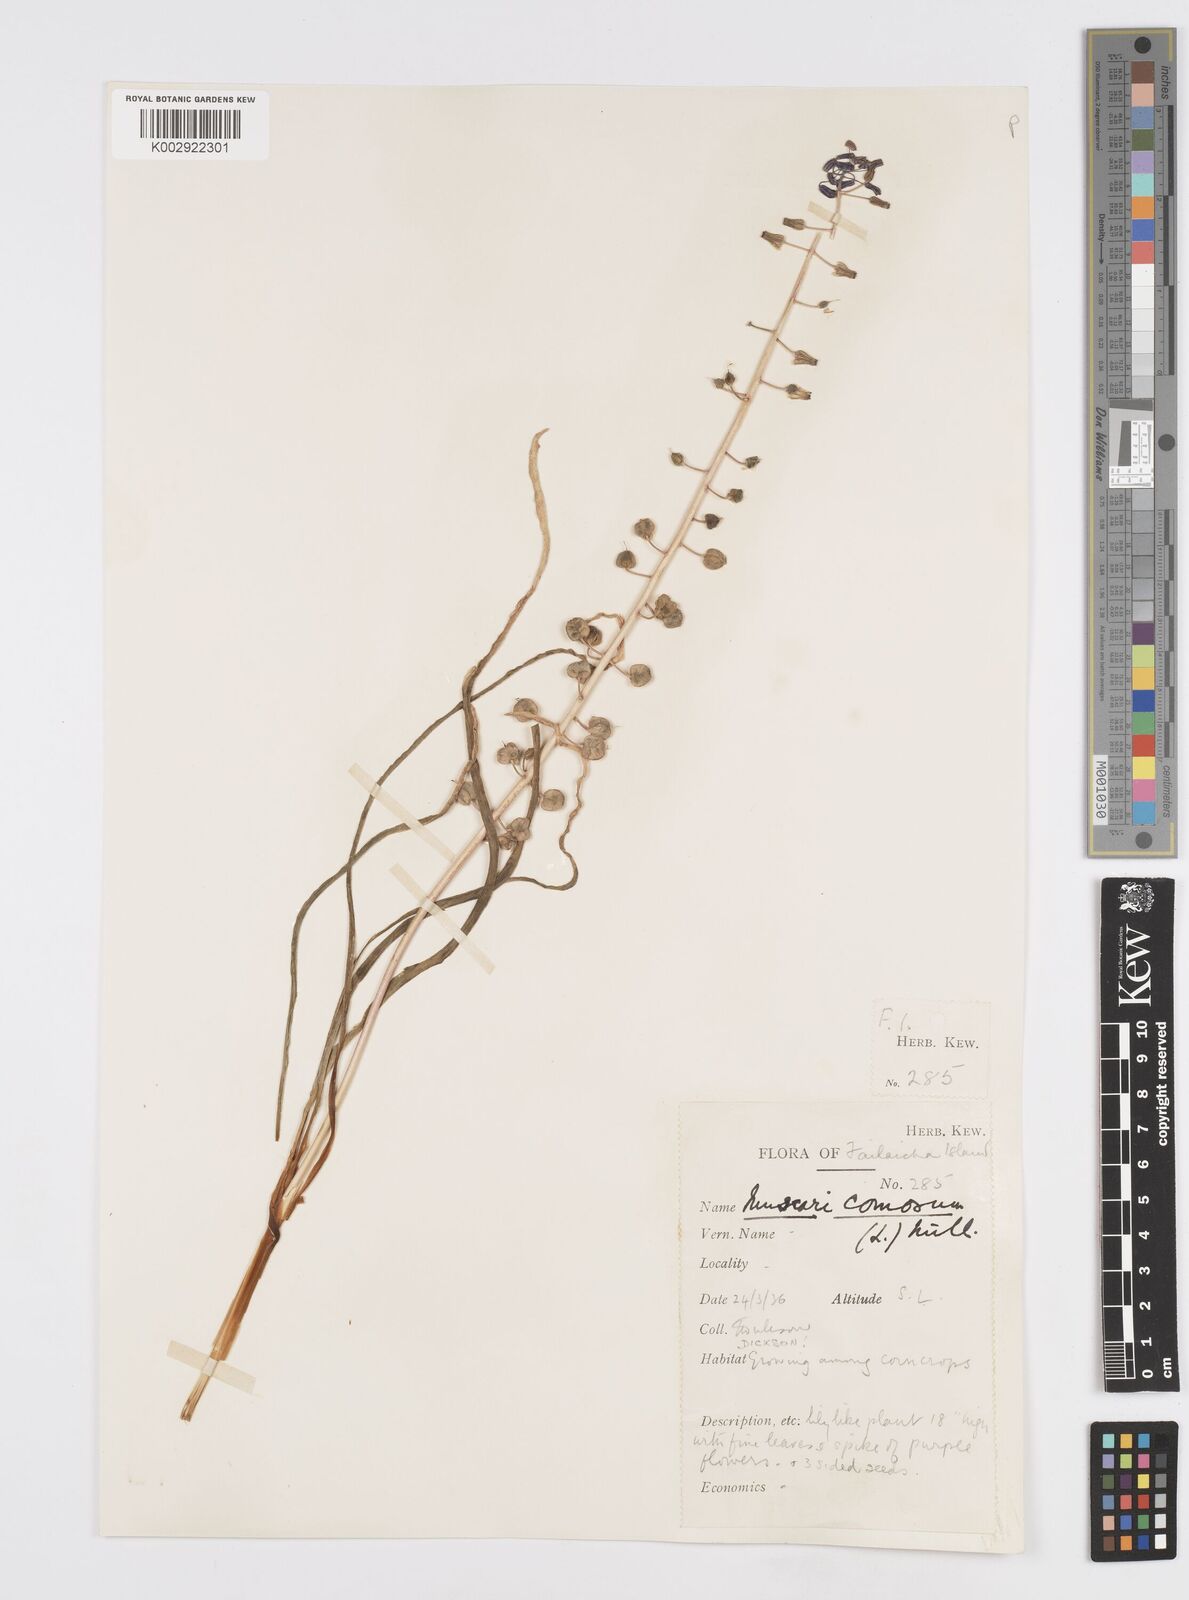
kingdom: Plantae
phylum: Tracheophyta
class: Liliopsida
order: Asparagales
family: Asparagaceae
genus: Muscari
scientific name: Muscari comosum
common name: Tassel hyacinth
